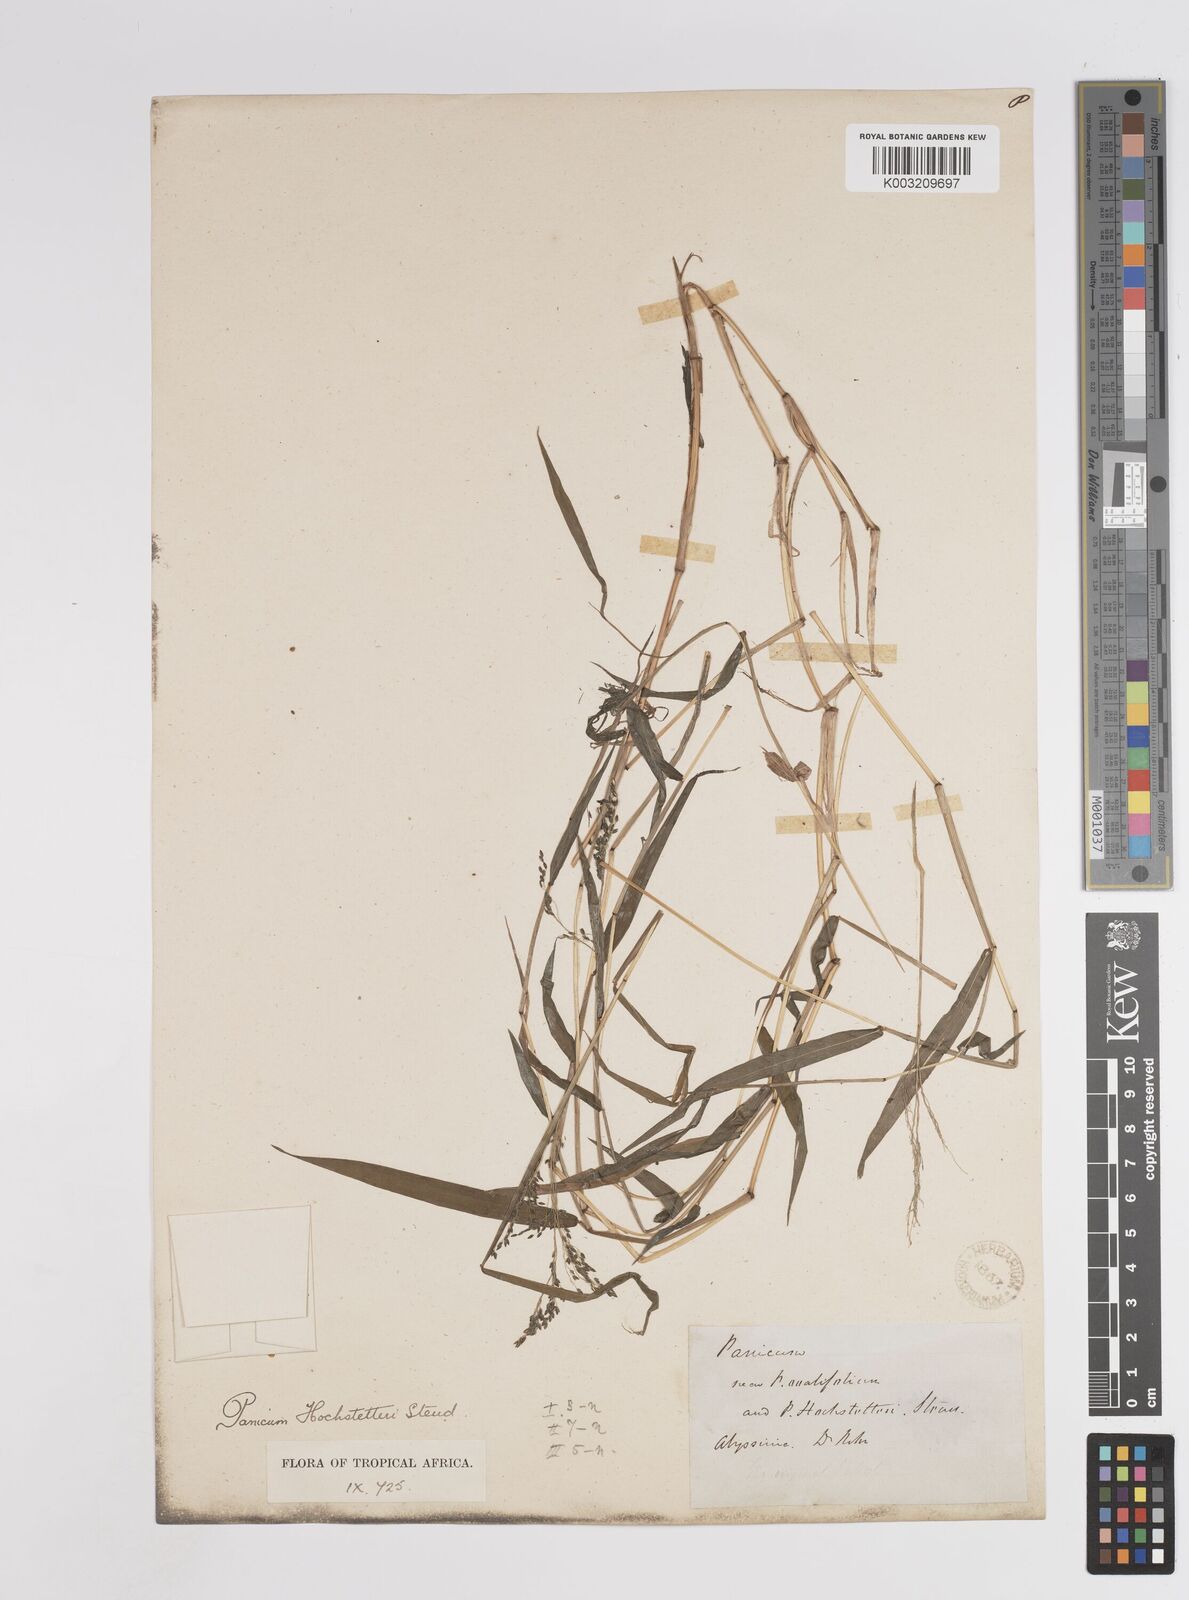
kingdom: Plantae
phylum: Tracheophyta
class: Liliopsida
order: Poales
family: Poaceae
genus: Panicum
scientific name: Panicum hochstetteri
